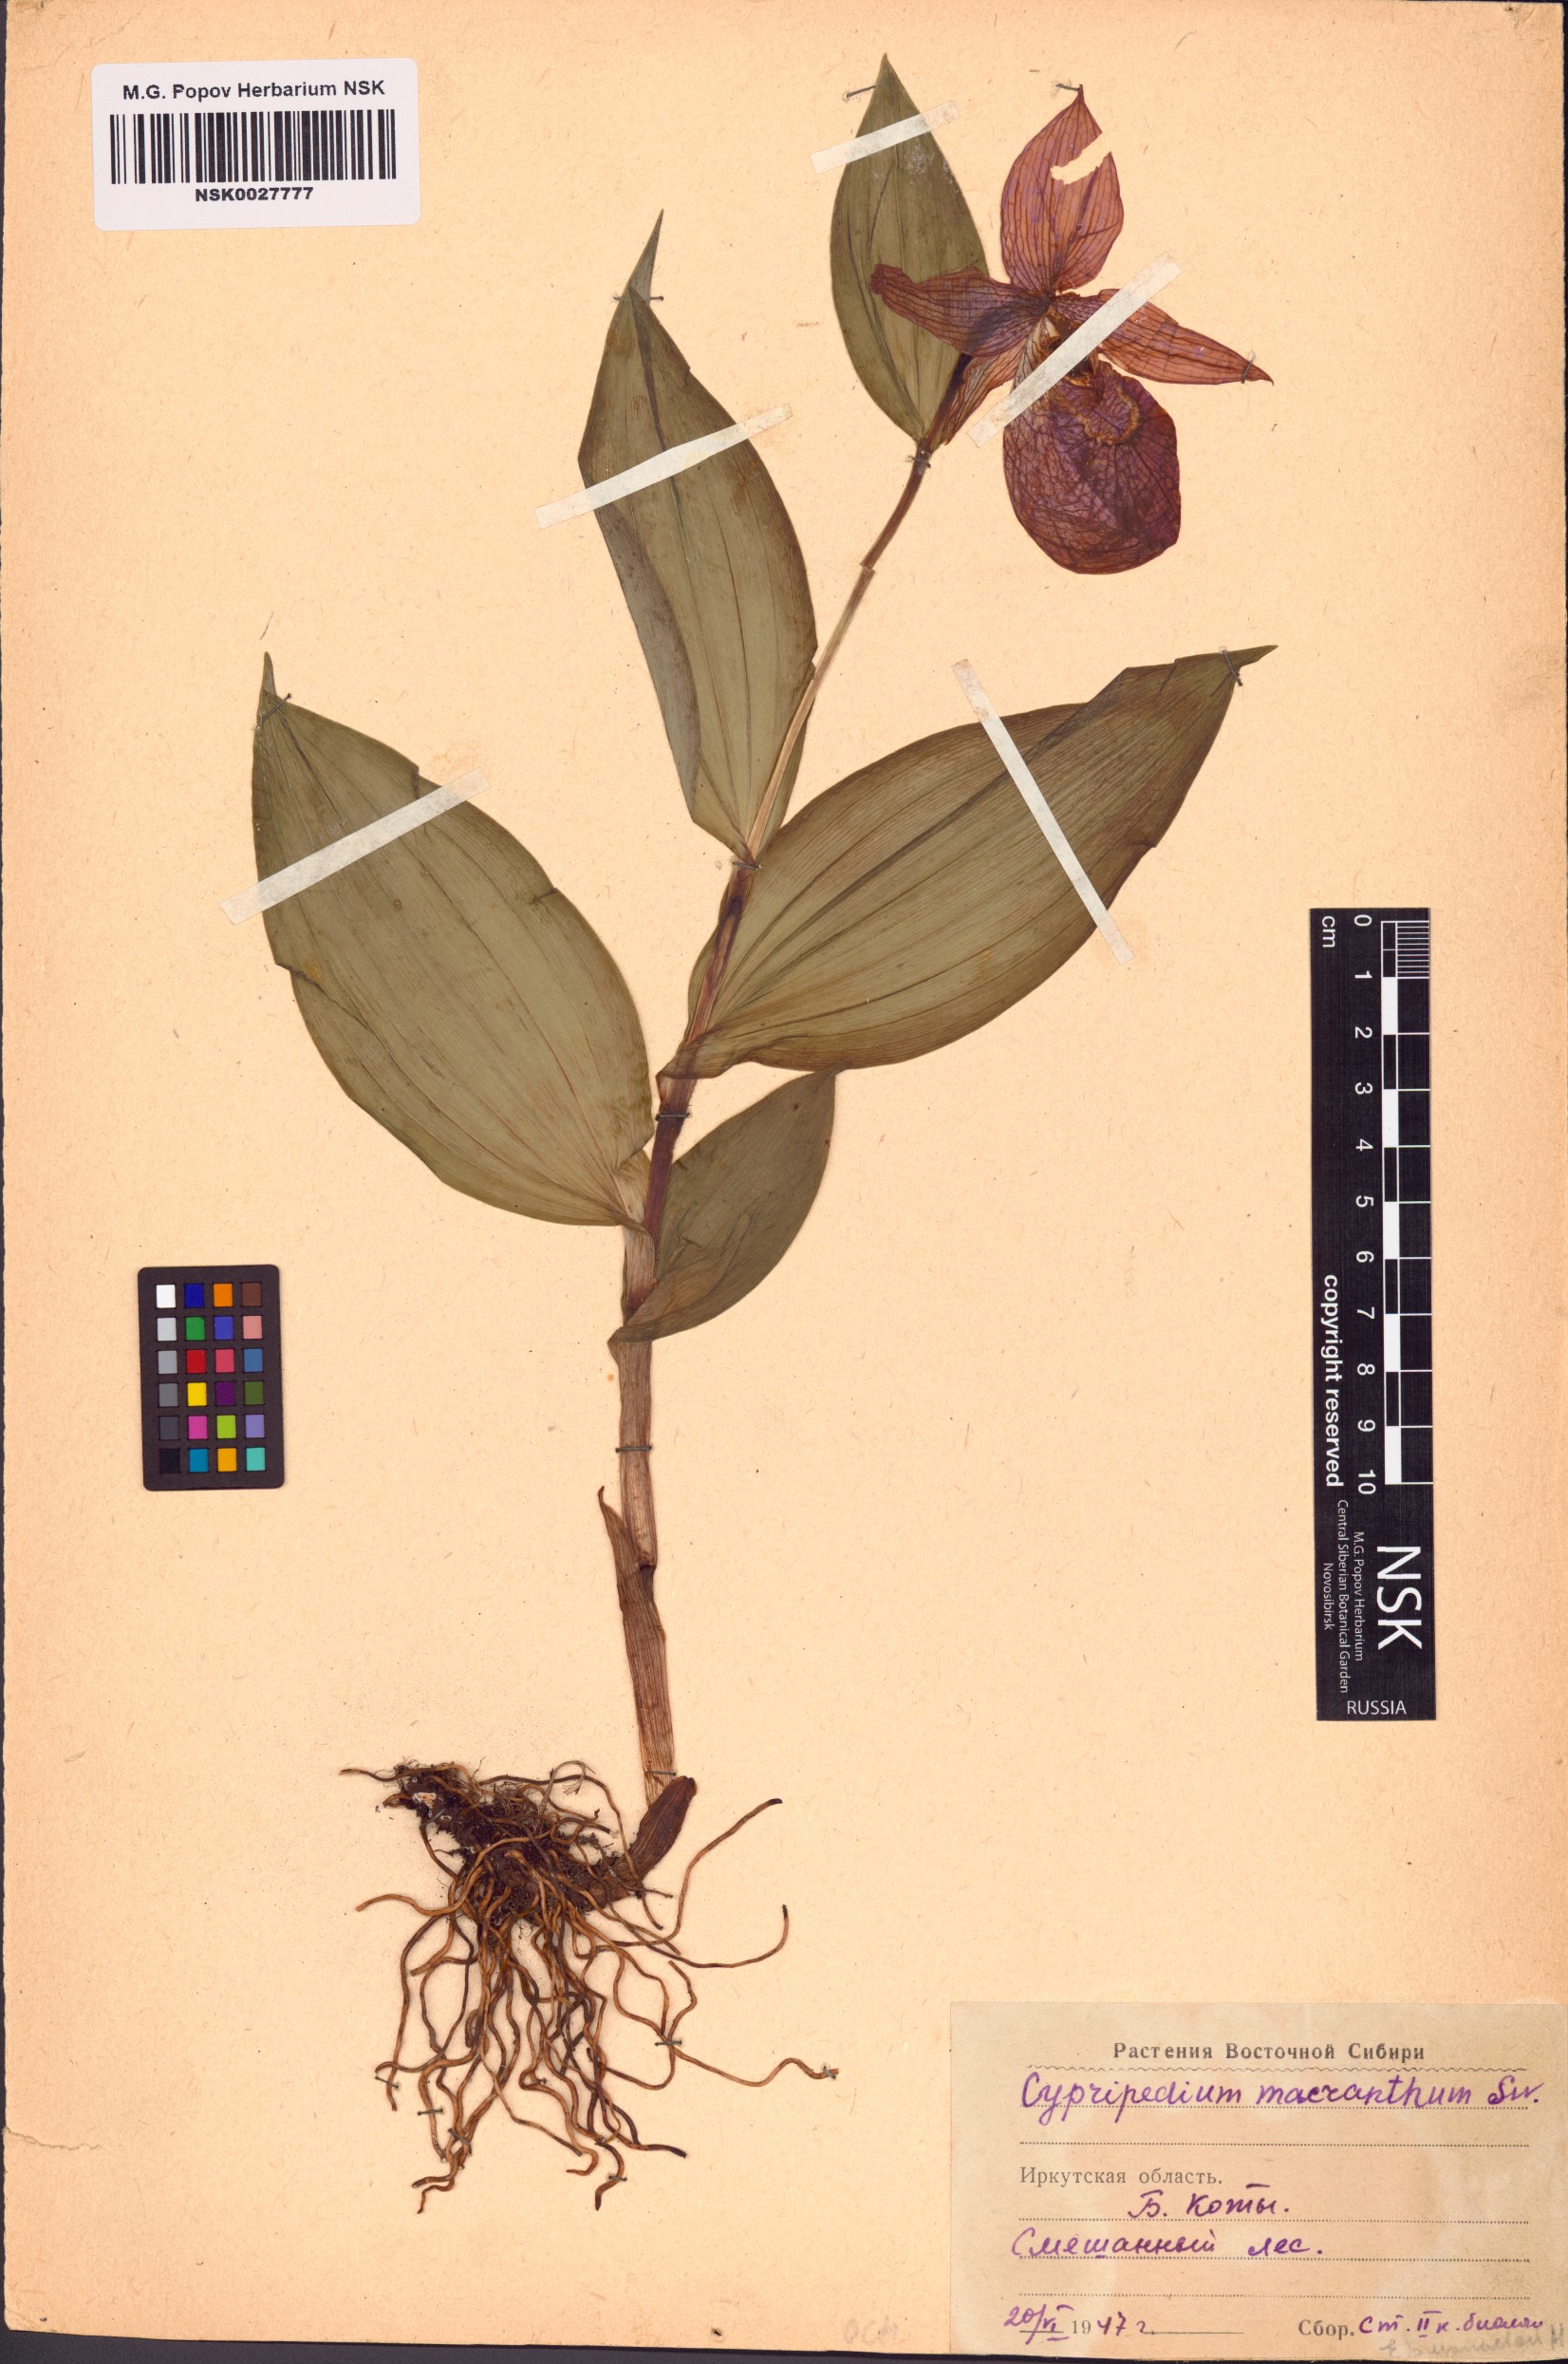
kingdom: Plantae
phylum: Tracheophyta
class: Liliopsida
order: Asparagales
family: Orchidaceae
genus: Cypripedium
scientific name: Cypripedium macranthos
